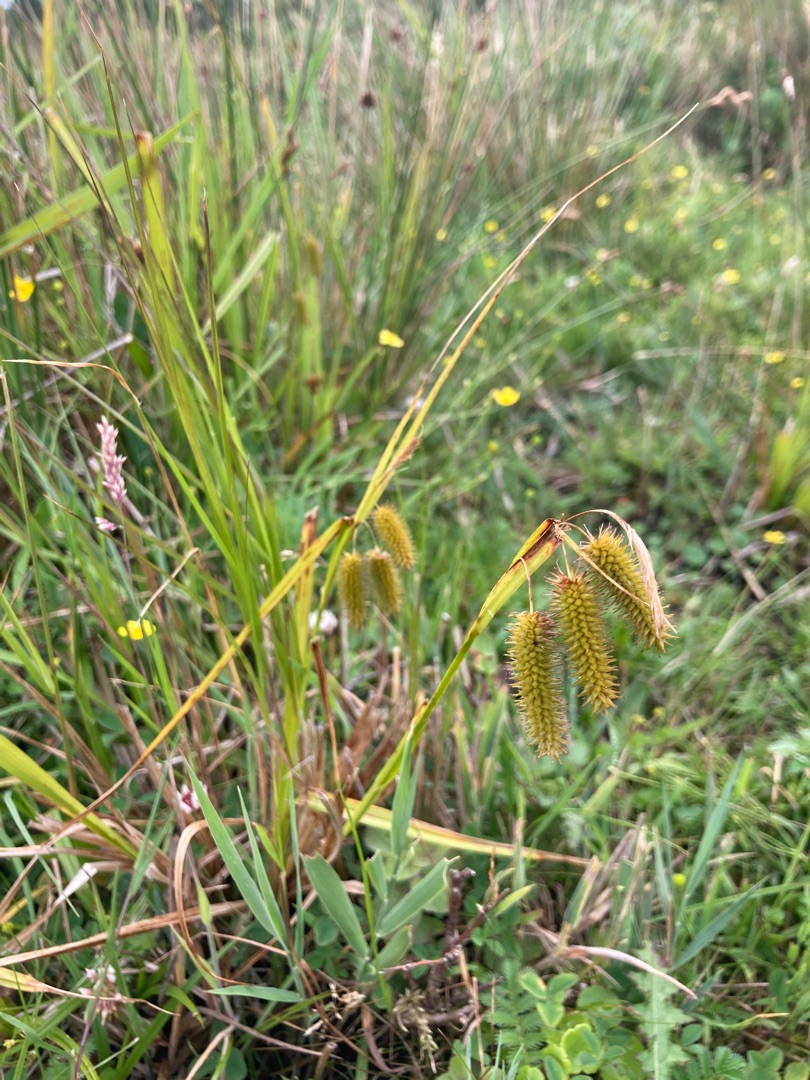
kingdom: Plantae
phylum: Tracheophyta
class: Liliopsida
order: Poales
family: Cyperaceae
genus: Carex
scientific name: Carex pseudocyperus
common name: Knippe-star
